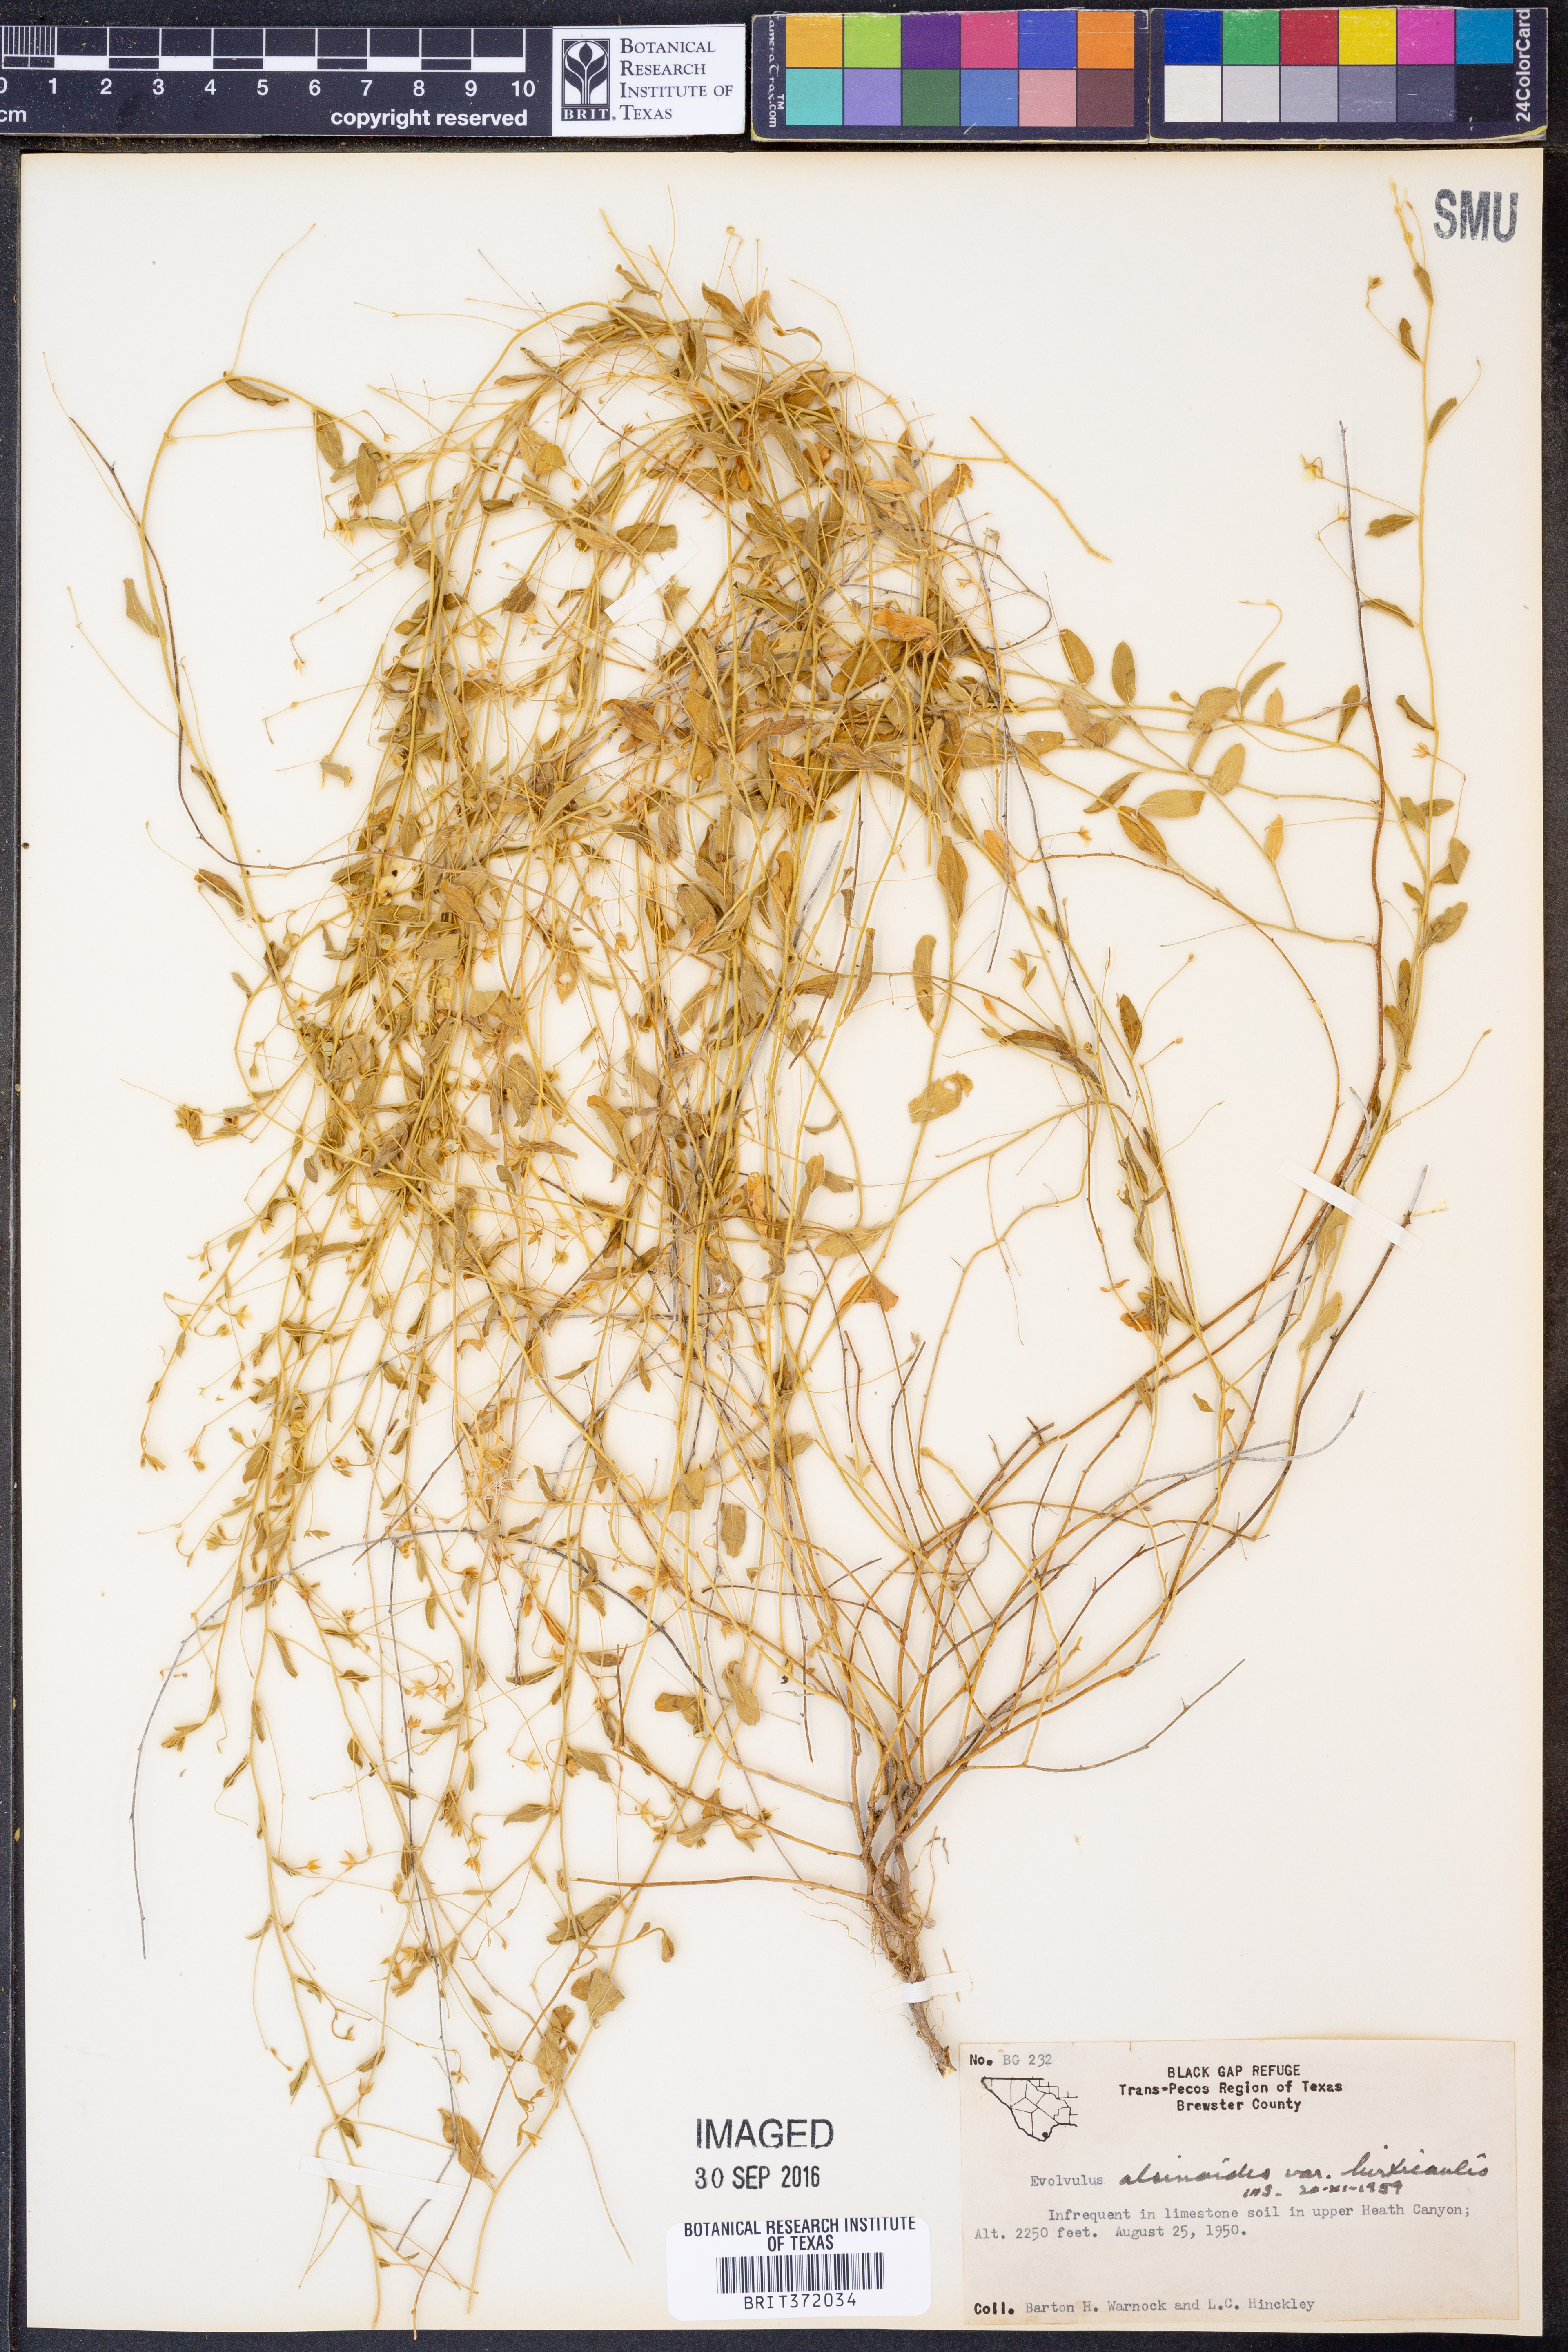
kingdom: Plantae
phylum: Tracheophyta
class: Magnoliopsida
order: Solanales
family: Convolvulaceae
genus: Evolvulus
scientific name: Evolvulus alsinoides
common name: Slender dwarf morning-glory
